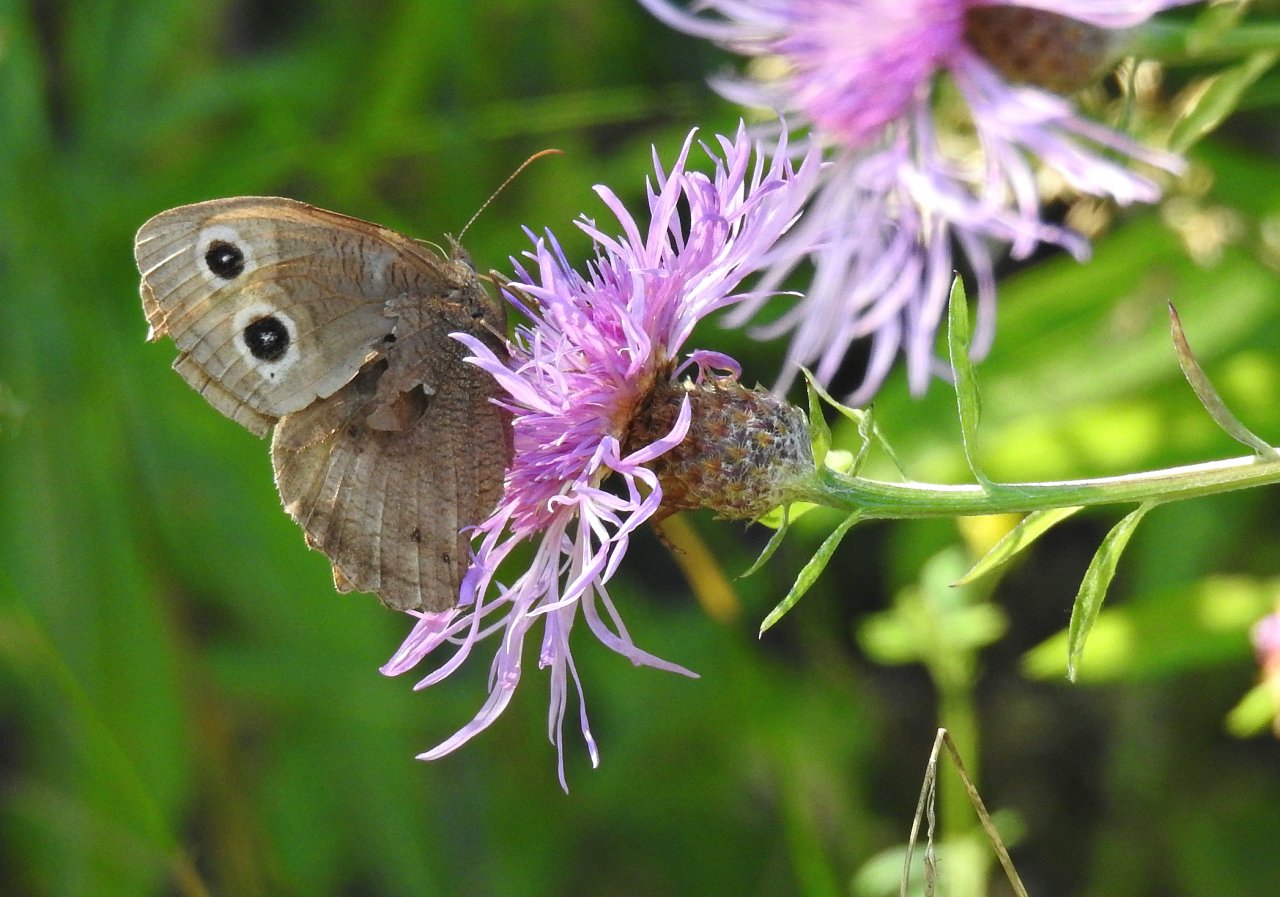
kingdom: Animalia
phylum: Arthropoda
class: Insecta
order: Lepidoptera
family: Nymphalidae
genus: Cercyonis
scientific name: Cercyonis pegala
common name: Common Wood-Nymph
